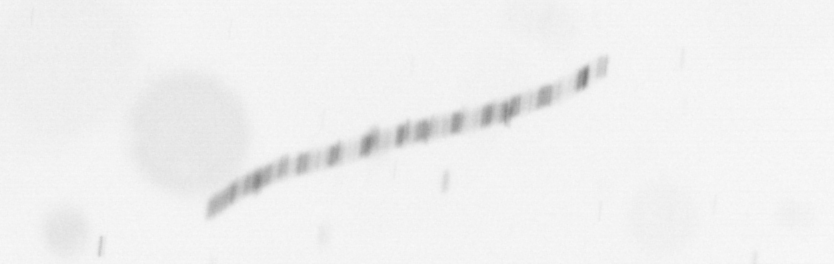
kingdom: Chromista
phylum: Ochrophyta
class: Bacillariophyceae
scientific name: Bacillariophyceae
